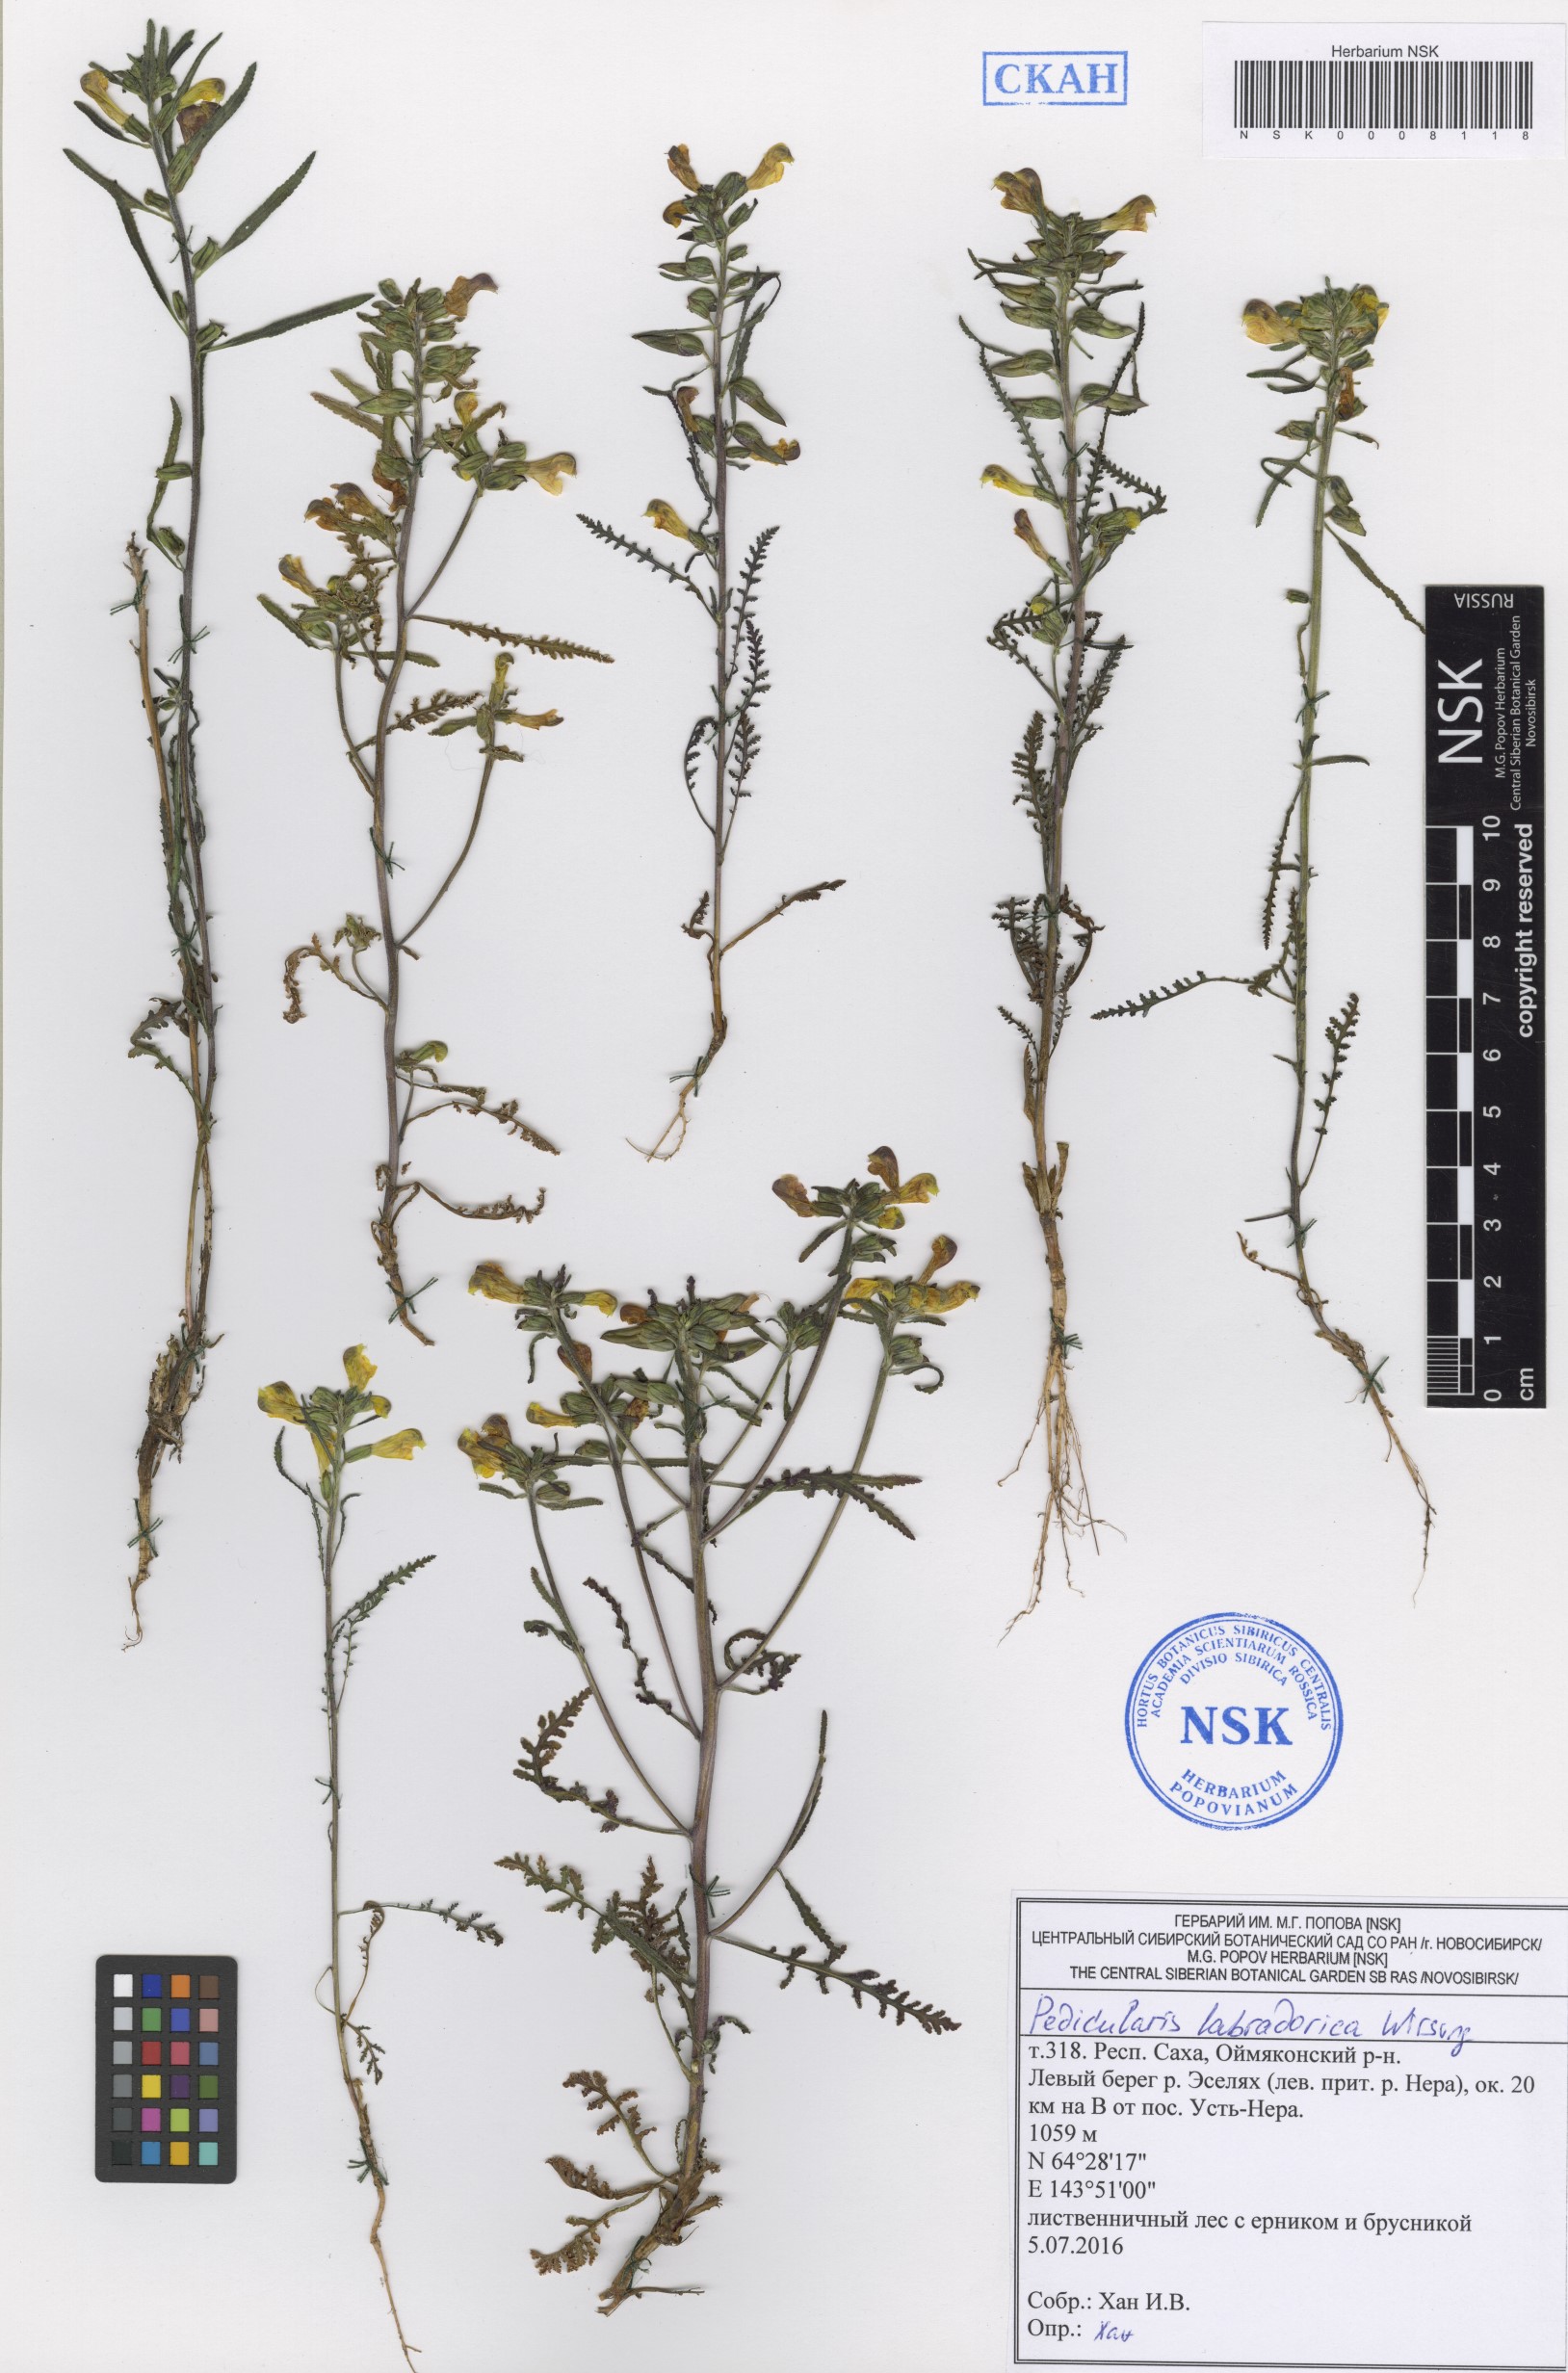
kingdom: Plantae
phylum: Tracheophyta
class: Magnoliopsida
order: Lamiales
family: Orobanchaceae
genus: Pedicularis
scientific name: Pedicularis labradorica
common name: Labrador lousewort
